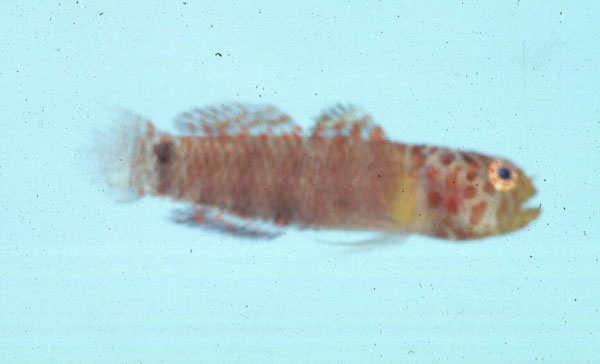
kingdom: Animalia
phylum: Chordata
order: Perciformes
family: Gobiidae
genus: Eviota
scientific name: Eviota nebulosa
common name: Nebulous pygmy goby
